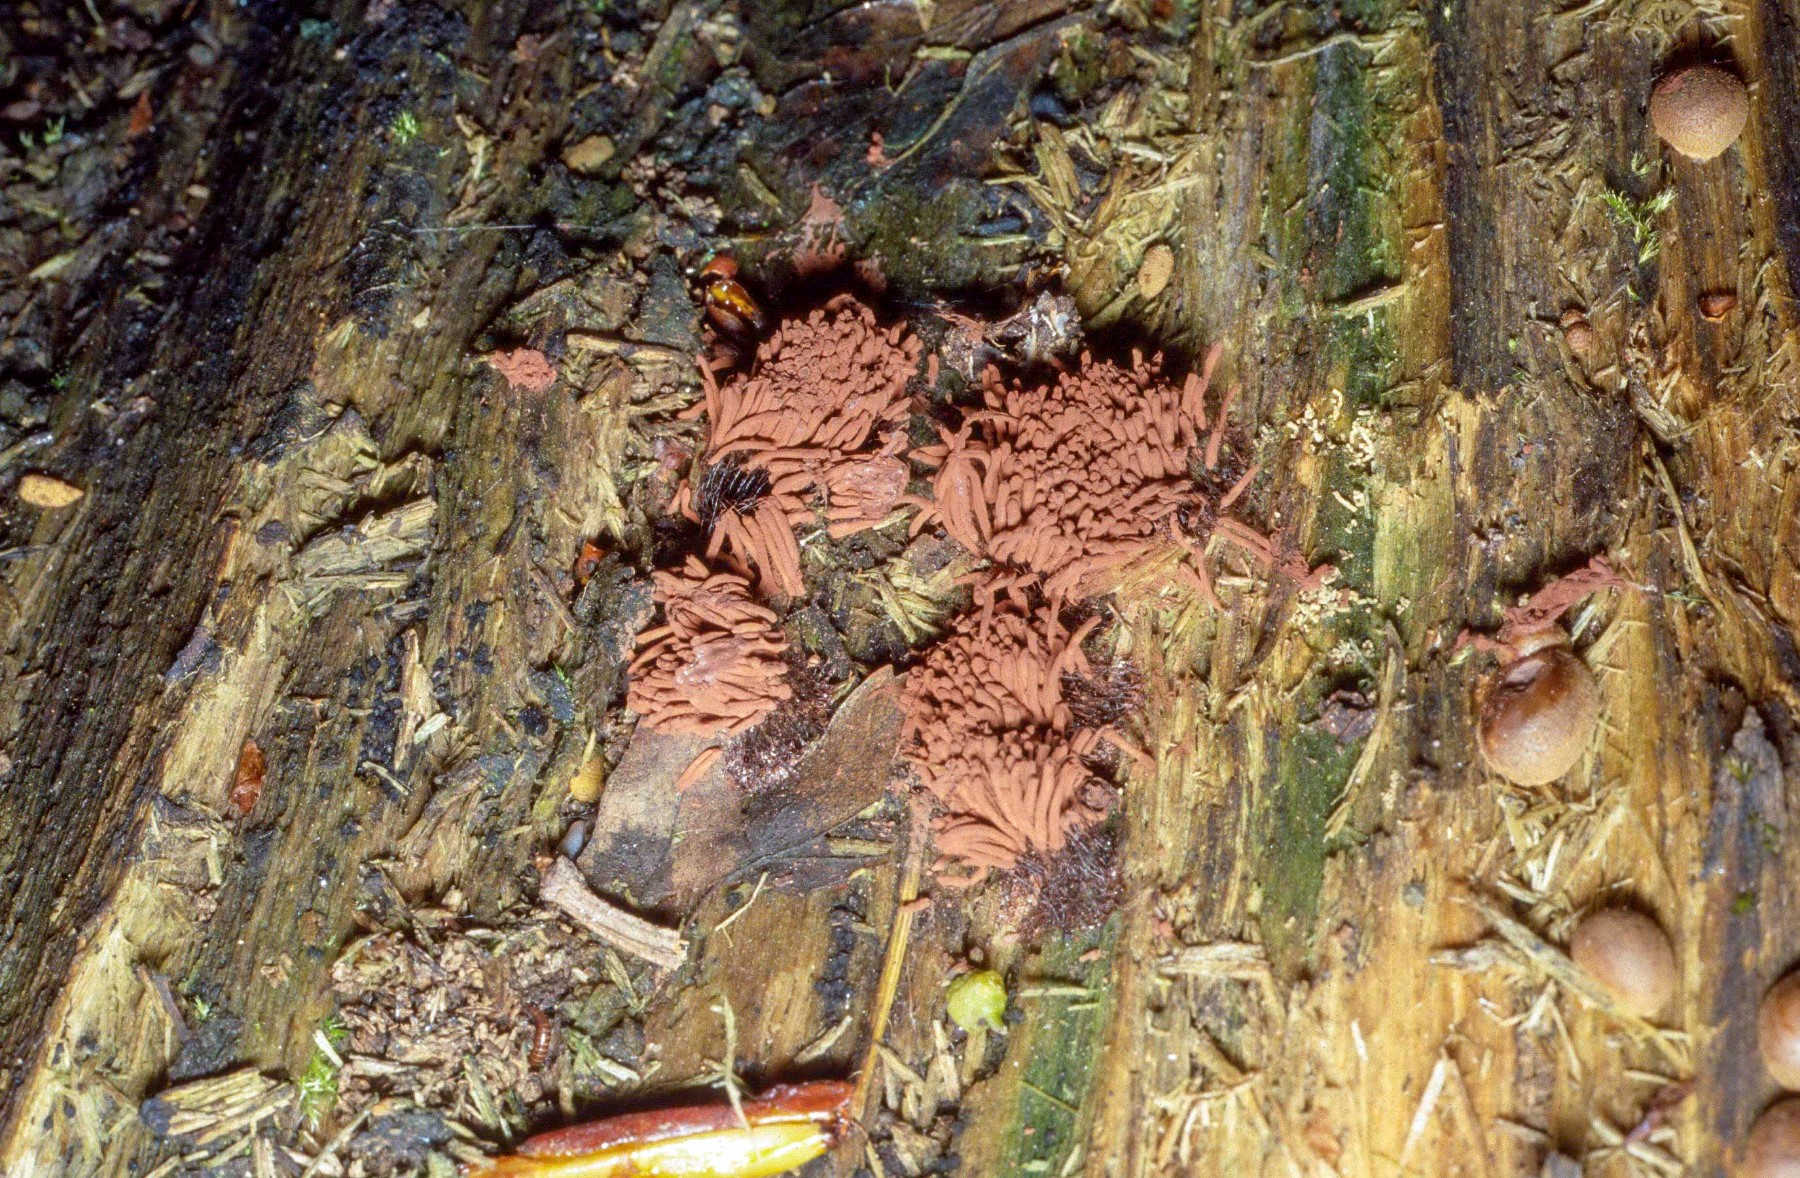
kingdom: Protozoa
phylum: Mycetozoa
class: Myxomycetes
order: Stemonitidales
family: Stemonitidaceae
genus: Stemonitis
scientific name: Stemonitis axifera
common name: rødbrun støvkølle
